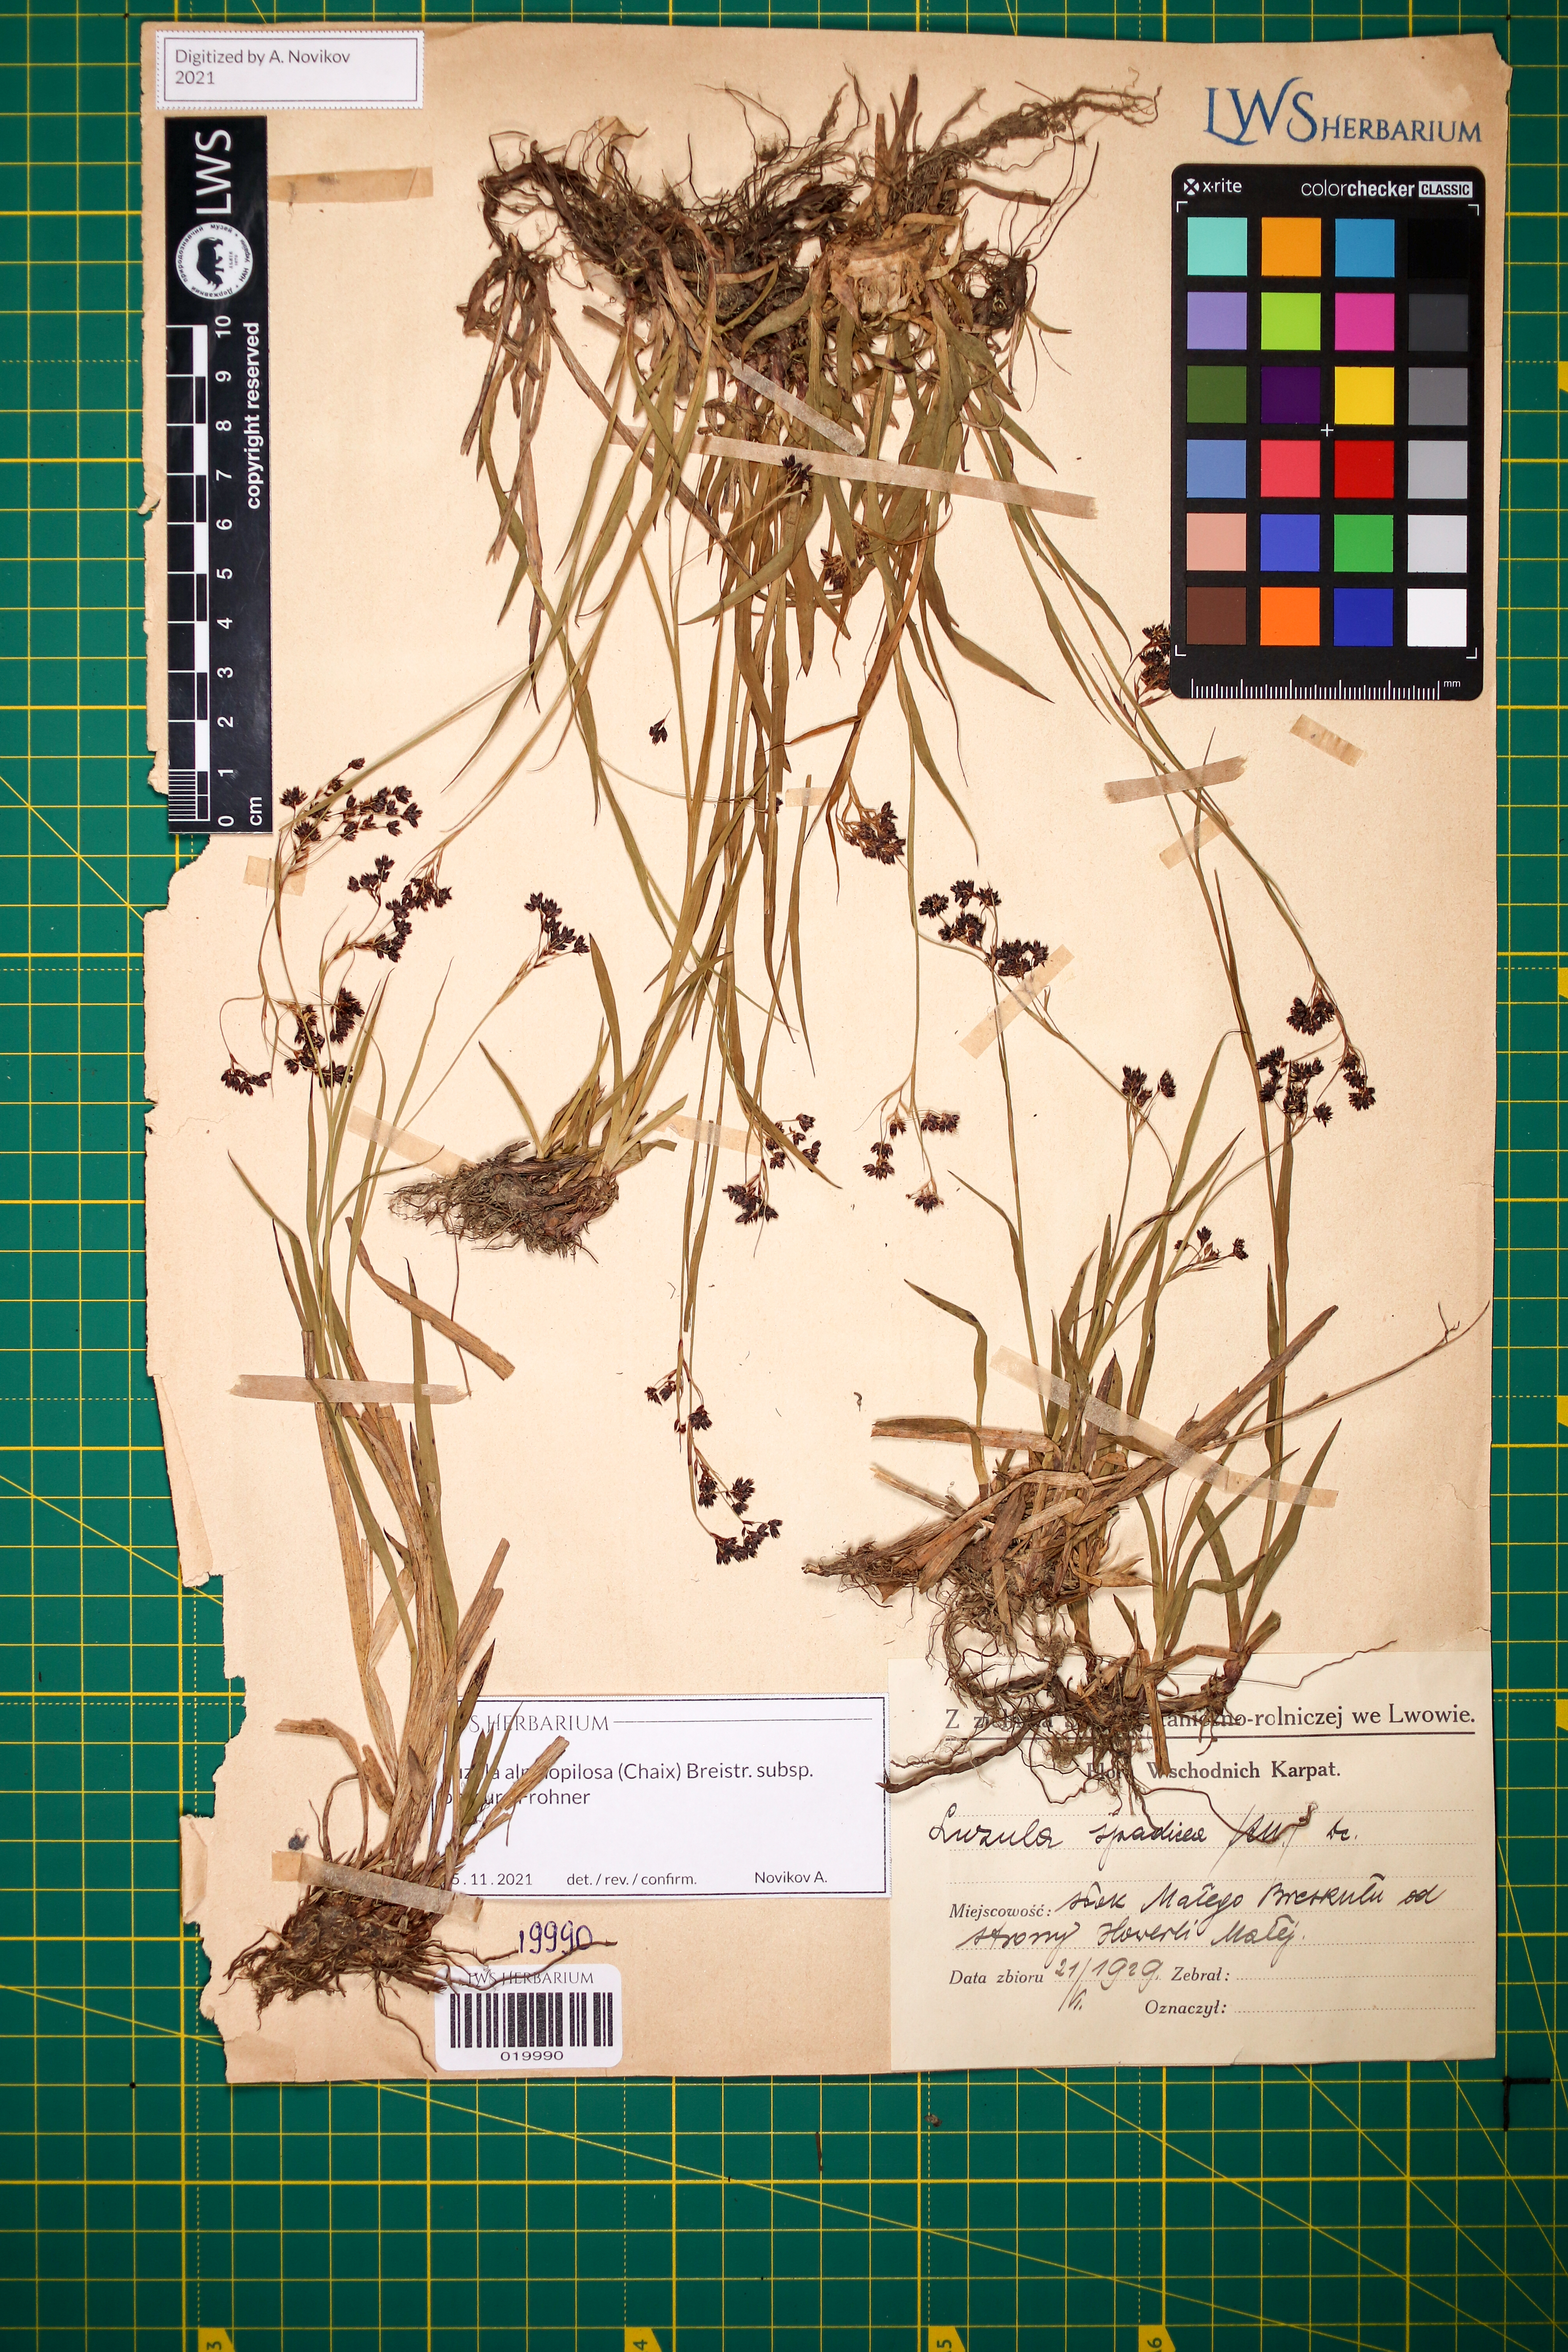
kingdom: Plantae
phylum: Tracheophyta
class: Liliopsida
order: Poales
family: Juncaceae
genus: Luzula
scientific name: Luzula alpinopilosa
